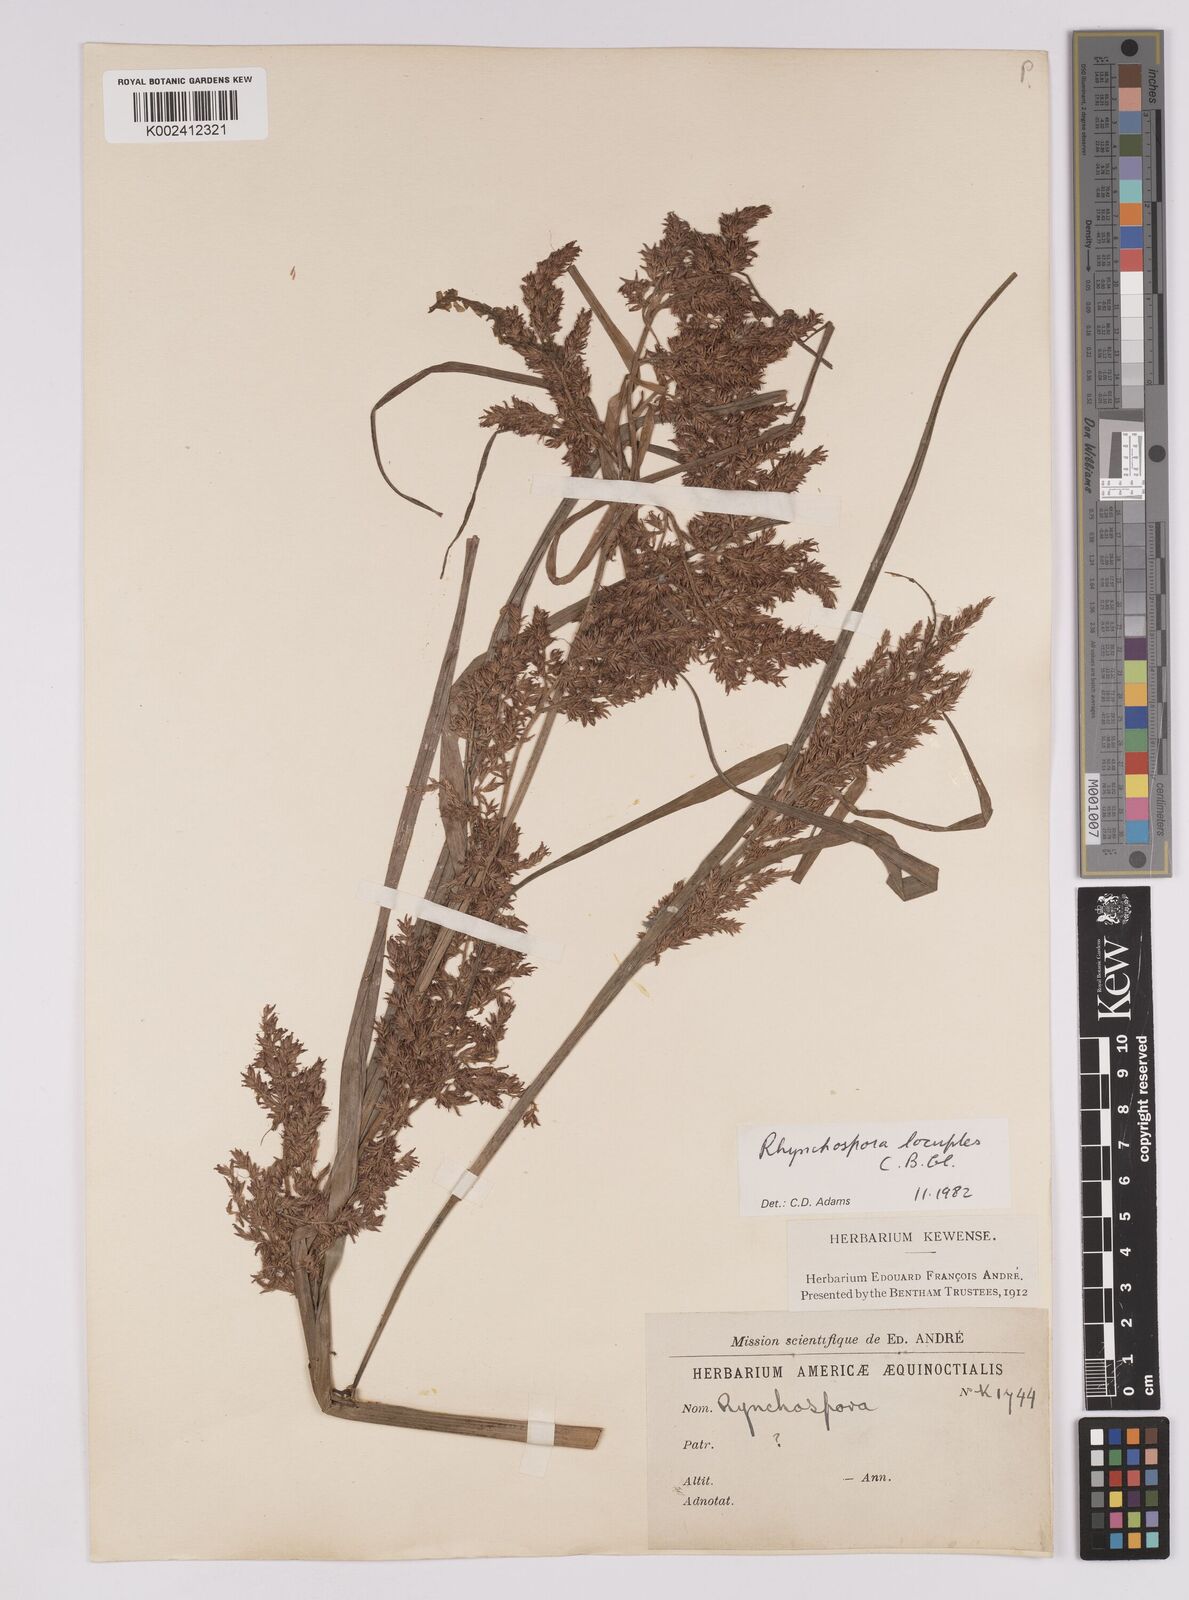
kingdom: Plantae
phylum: Tracheophyta
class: Liliopsida
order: Poales
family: Cyperaceae
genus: Rhynchospora
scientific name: Rhynchospora locuples
